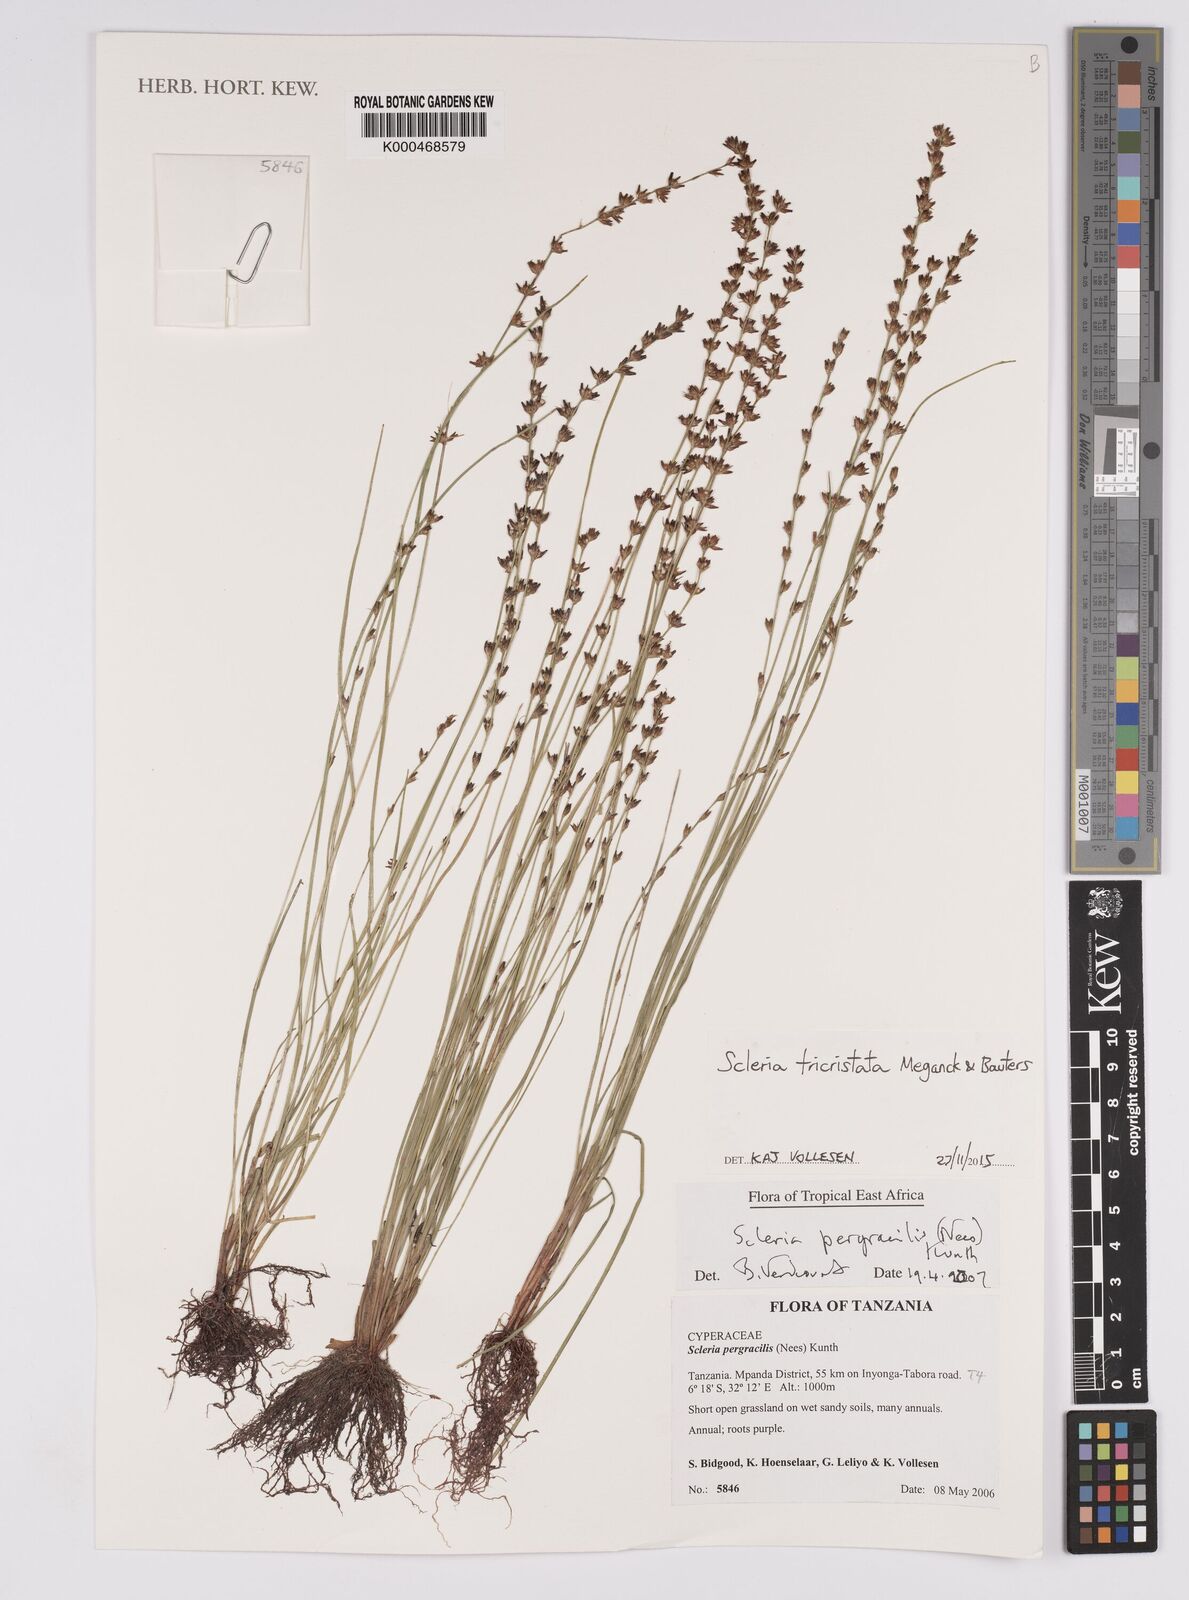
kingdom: Plantae
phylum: Tracheophyta
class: Liliopsida
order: Poales
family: Cyperaceae
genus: Scleria
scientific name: Scleria pergracilis
